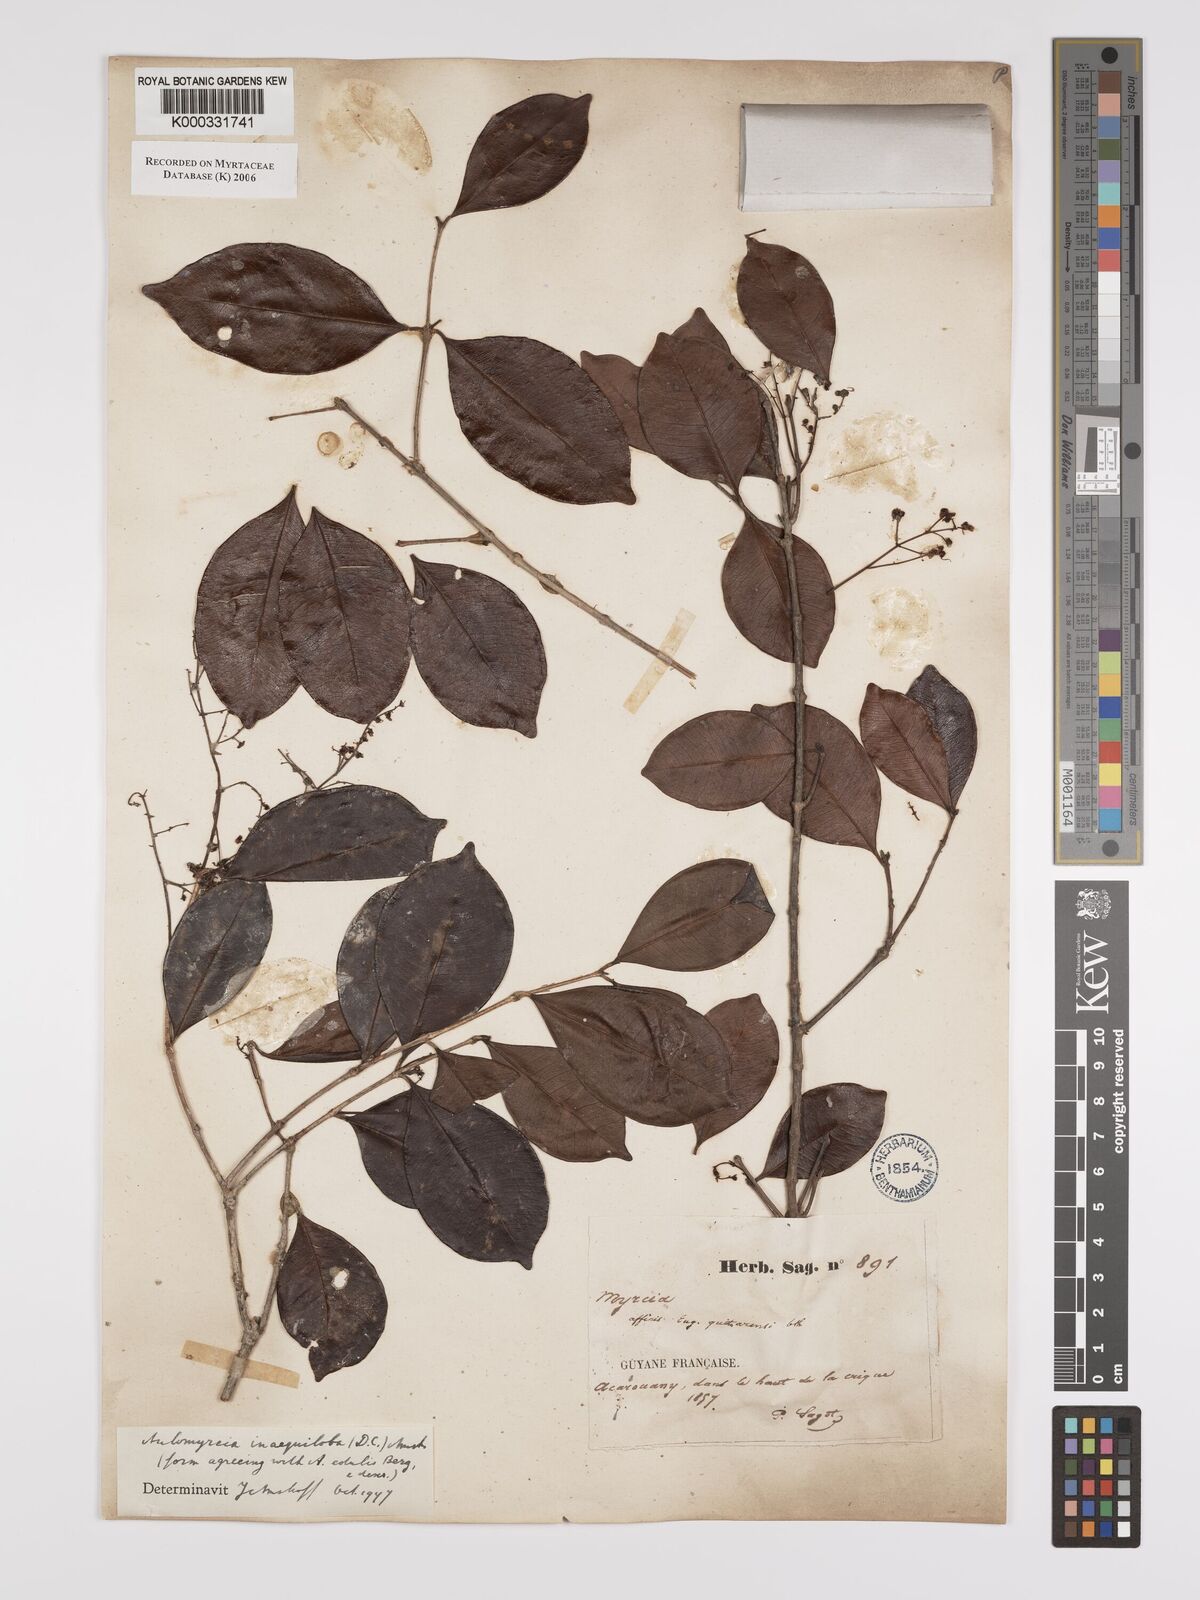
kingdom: Plantae
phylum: Tracheophyta
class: Magnoliopsida
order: Myrtales
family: Myrtaceae
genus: Myrcia
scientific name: Myrcia
